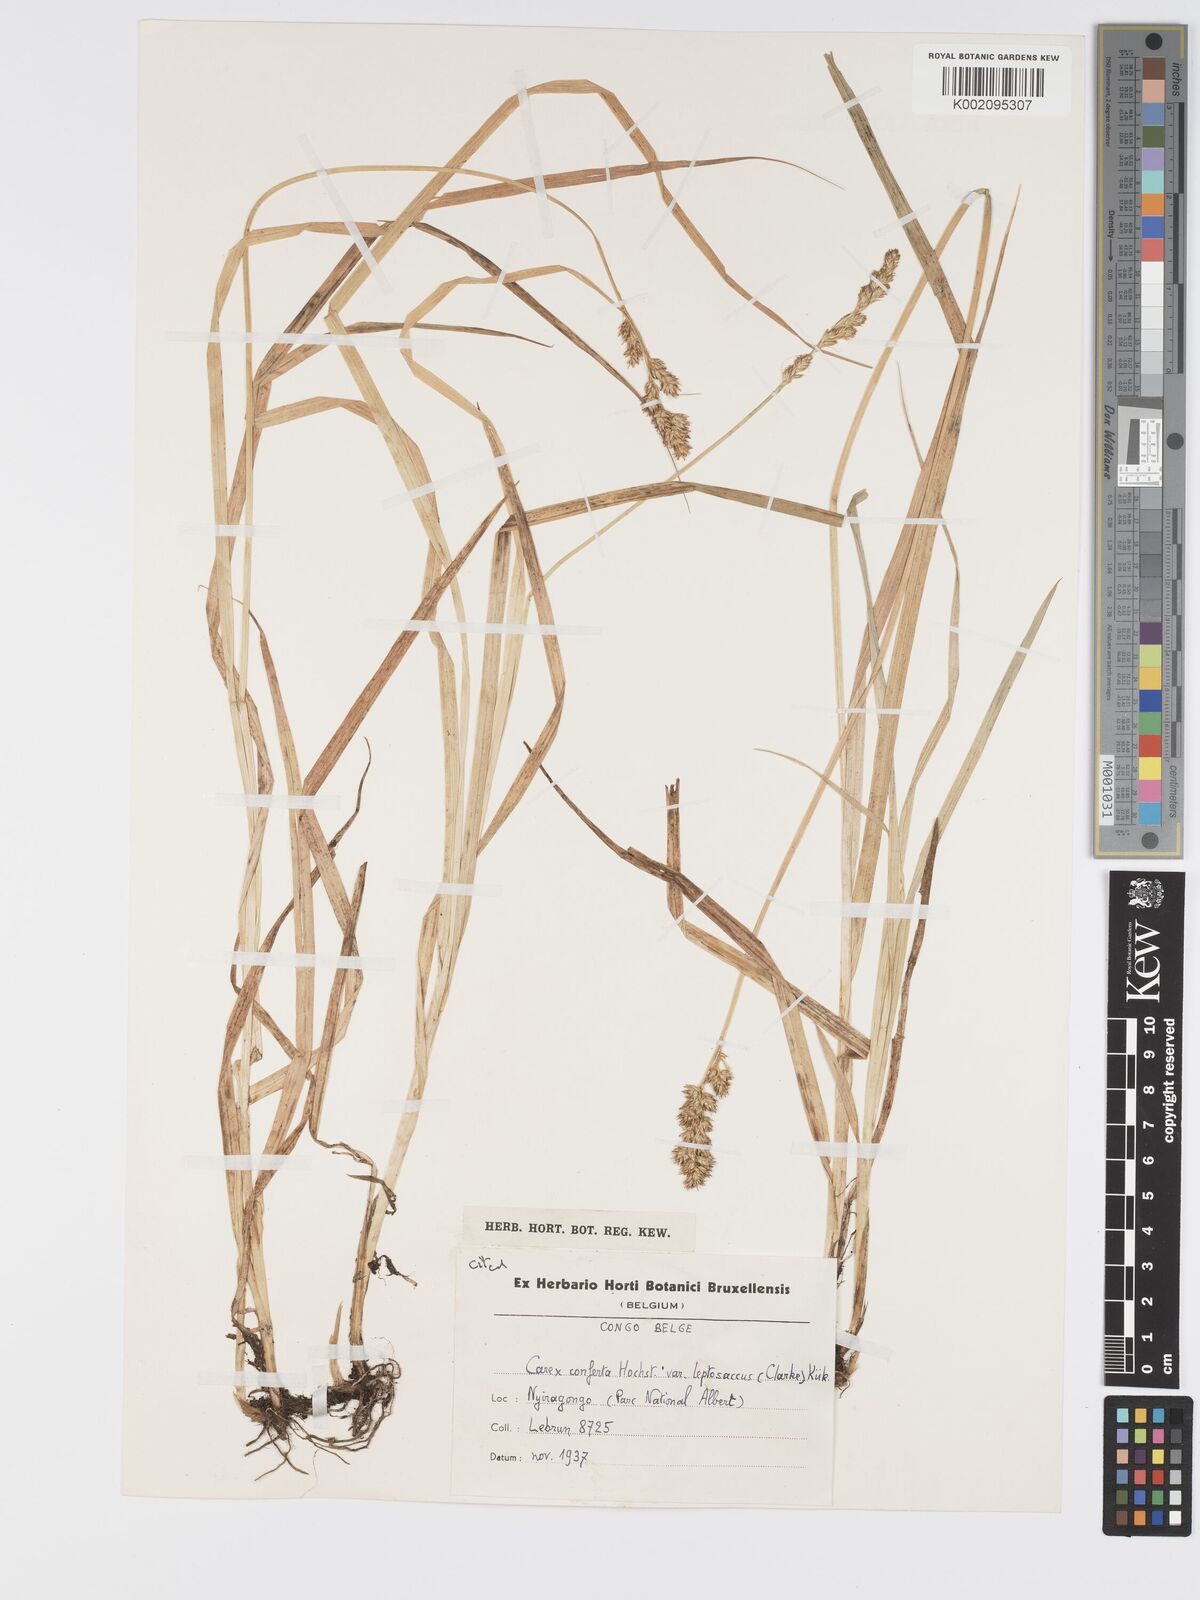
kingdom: Plantae
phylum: Tracheophyta
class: Liliopsida
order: Poales
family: Cyperaceae
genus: Carex
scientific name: Carex conferta
